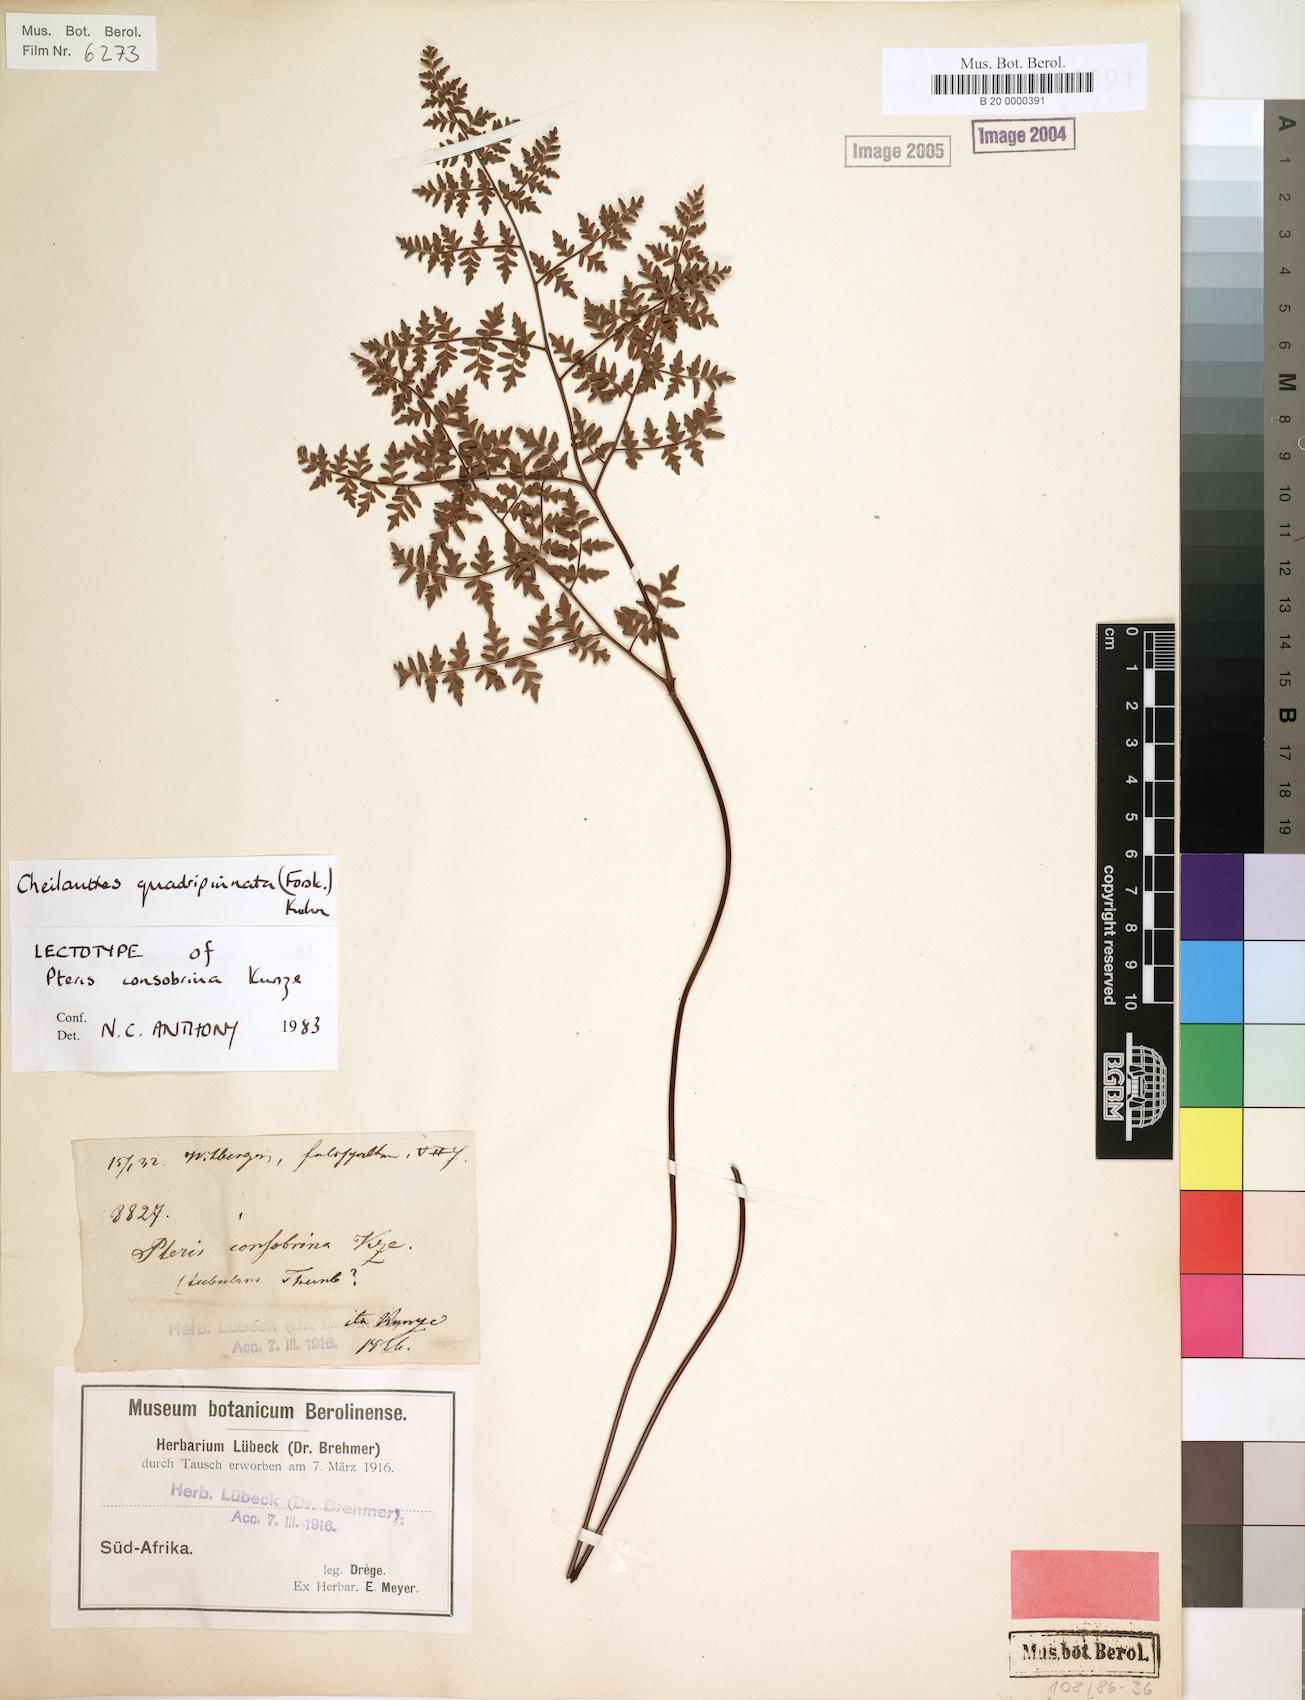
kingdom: Plantae
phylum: Tracheophyta
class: Polypodiopsida
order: Polypodiales
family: Pteridaceae
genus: Cheilanthes
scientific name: Cheilanthes quadripinnata
